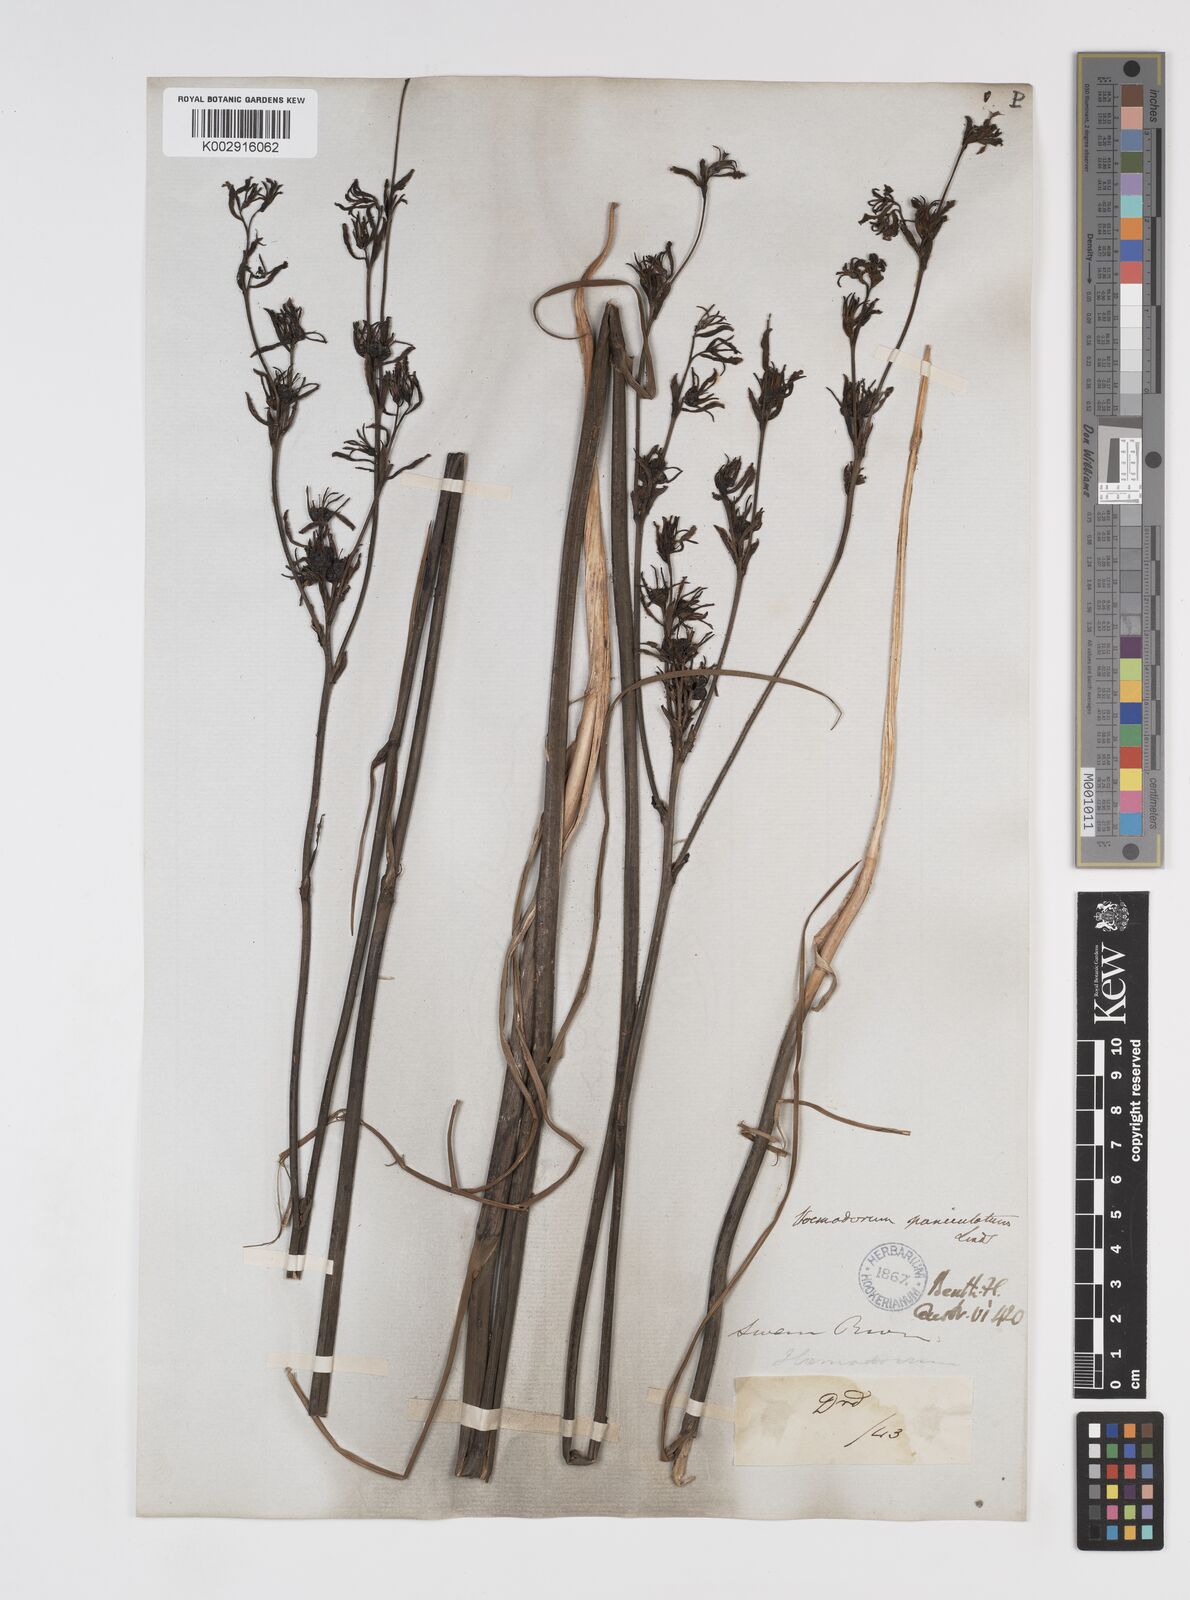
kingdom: Plantae
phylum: Tracheophyta
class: Liliopsida
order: Commelinales
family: Haemodoraceae
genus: Haemodorum
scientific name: Haemodorum paniculatum
